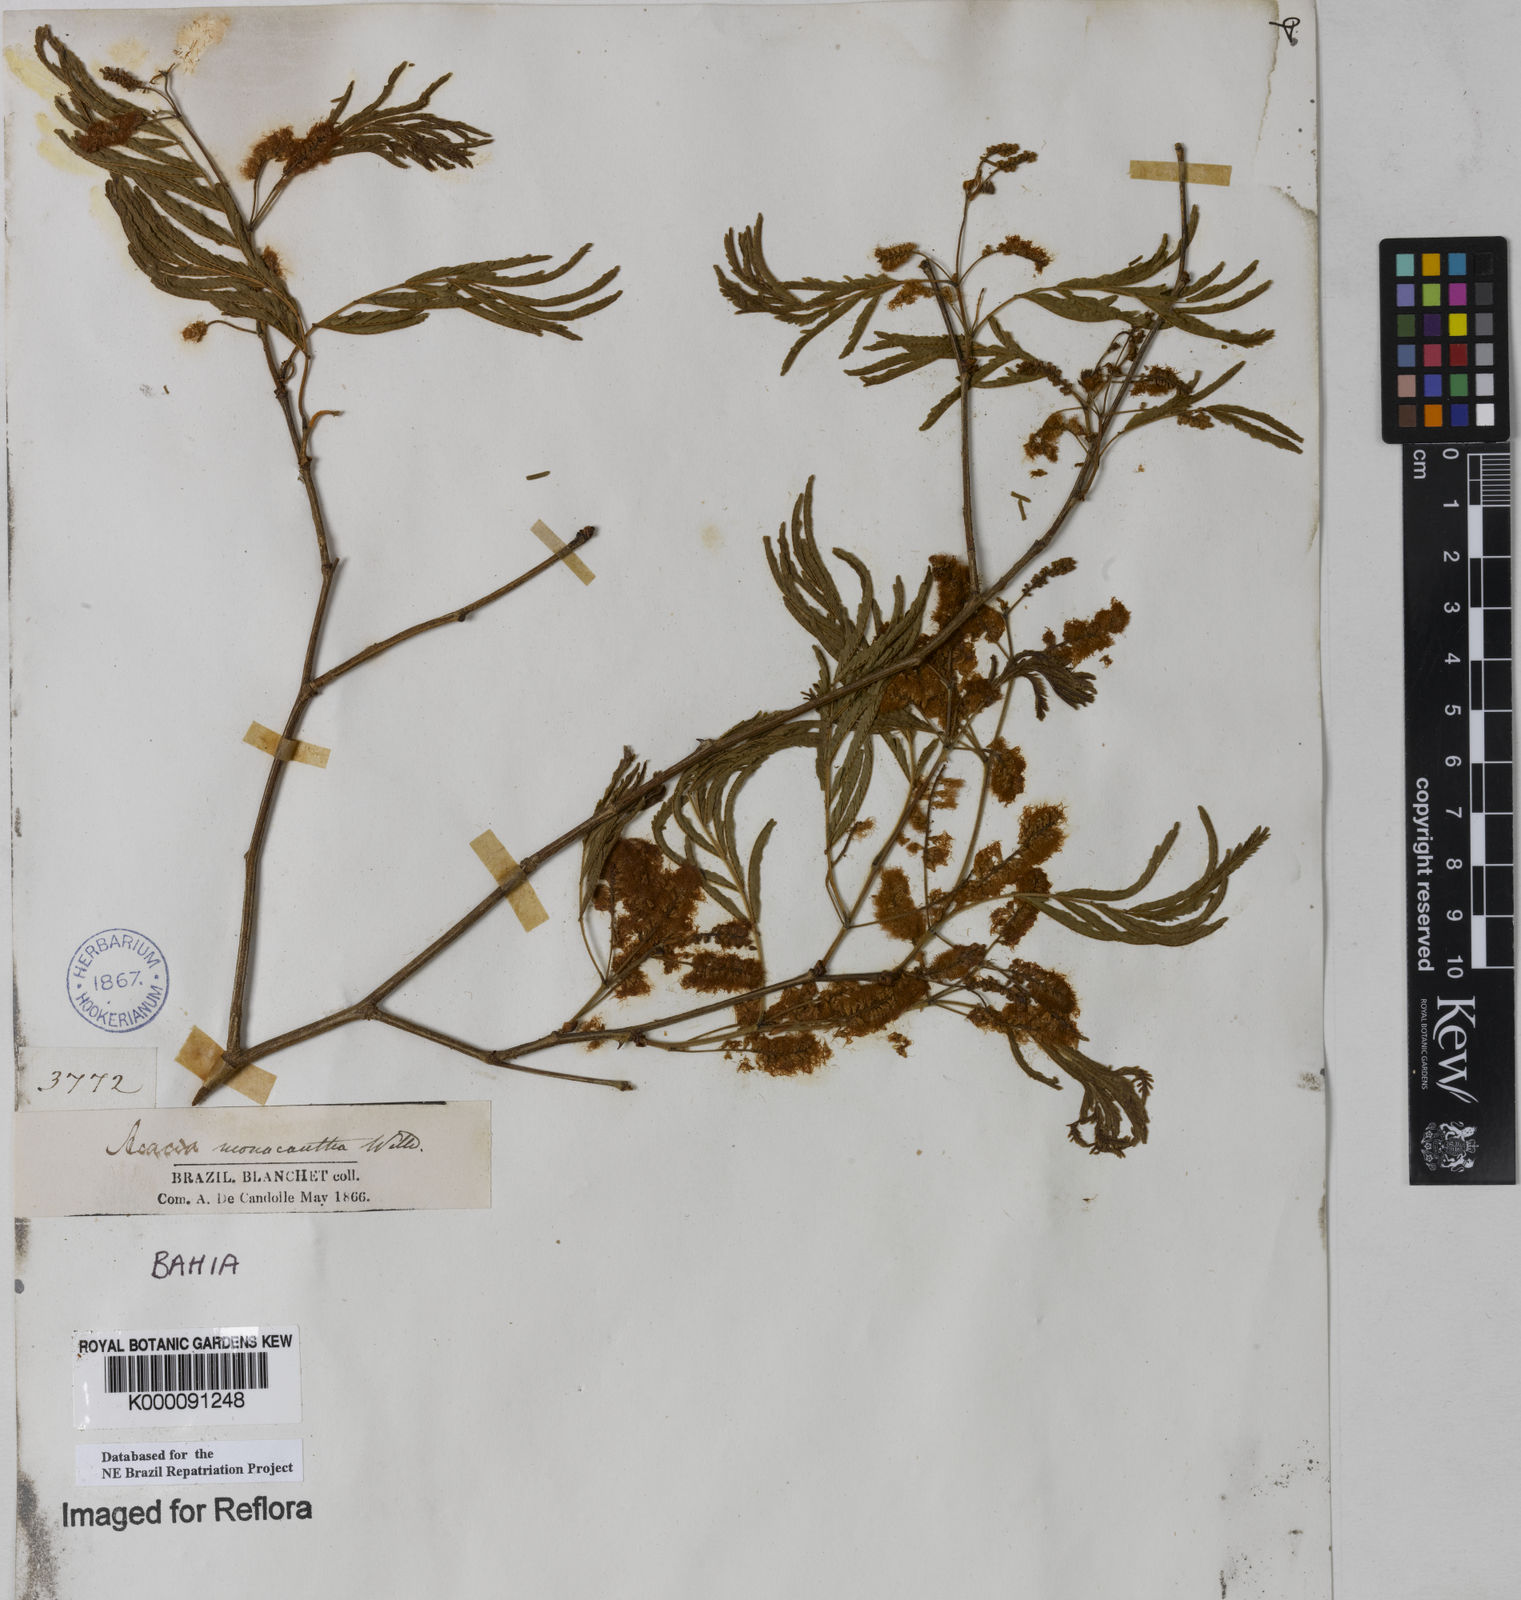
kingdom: Plantae
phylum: Tracheophyta
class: Magnoliopsida
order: Fabales
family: Fabaceae
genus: Senegalia
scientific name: Senegalia monacantha
